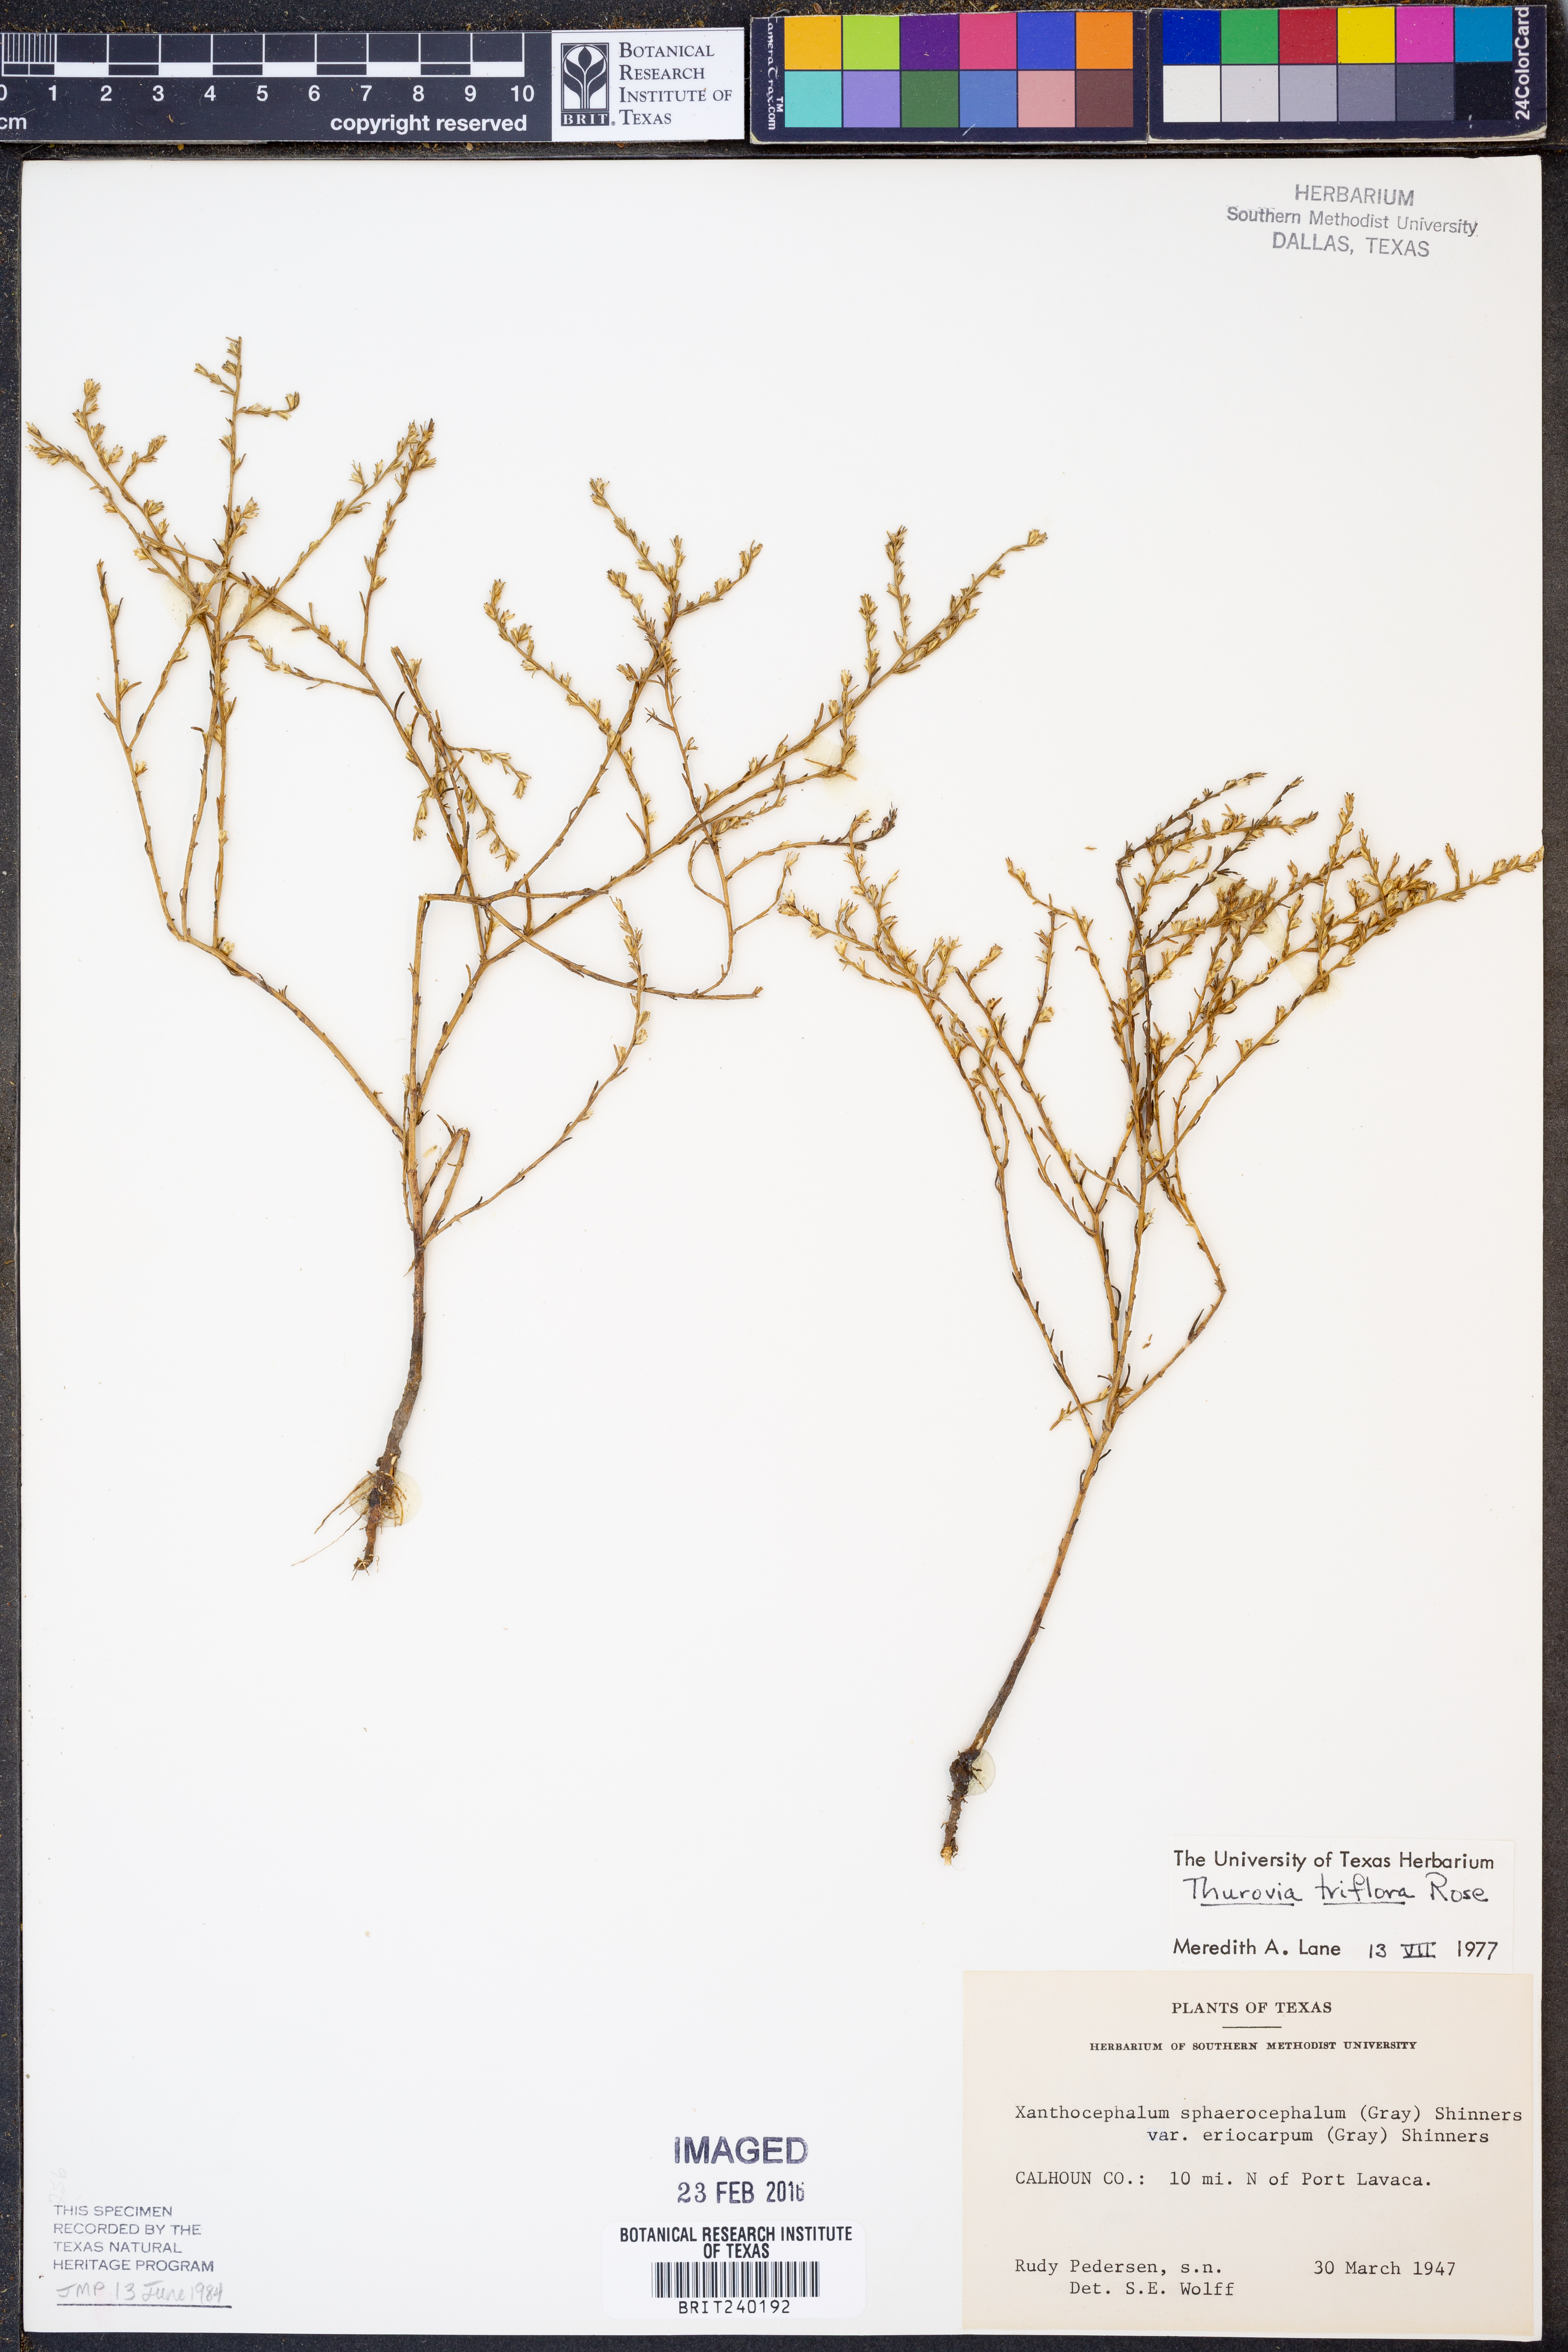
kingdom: Plantae
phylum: Tracheophyta
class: Magnoliopsida
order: Asterales
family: Asteraceae
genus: Thurovia
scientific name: Thurovia triflora
